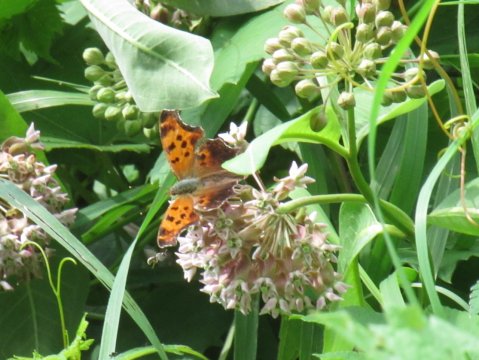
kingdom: Animalia
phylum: Arthropoda
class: Insecta
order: Lepidoptera
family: Nymphalidae
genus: Polygonia
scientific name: Polygonia comma
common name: Eastern Comma
